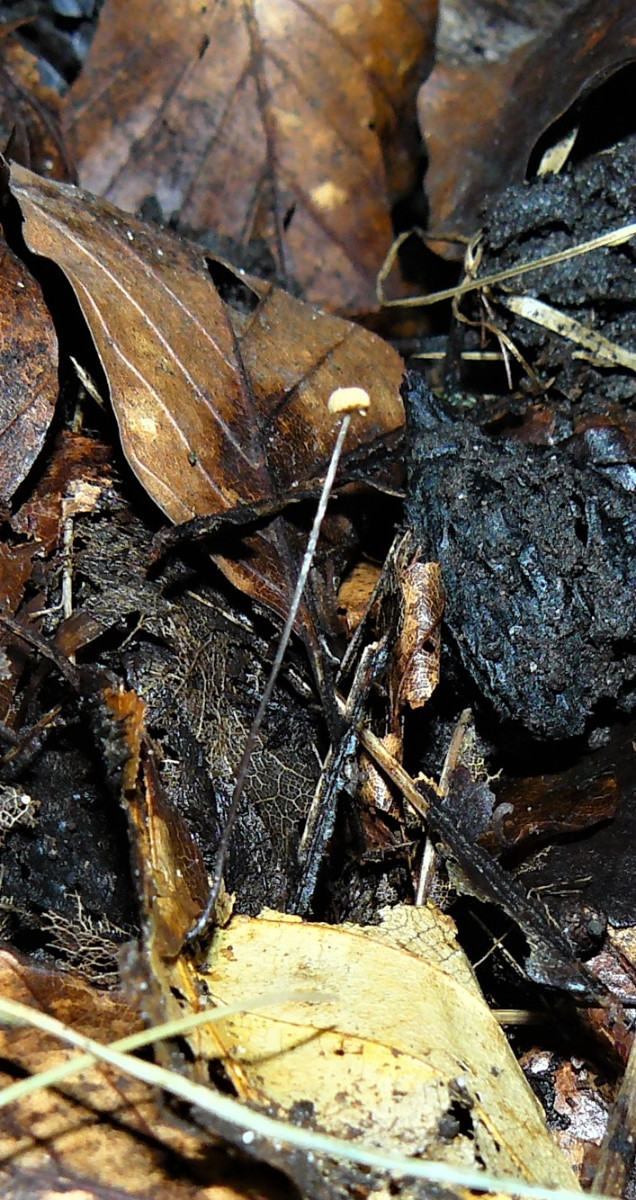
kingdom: Fungi
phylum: Basidiomycota
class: Agaricomycetes
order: Agaricales
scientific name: Agaricales
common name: champignonordenen
